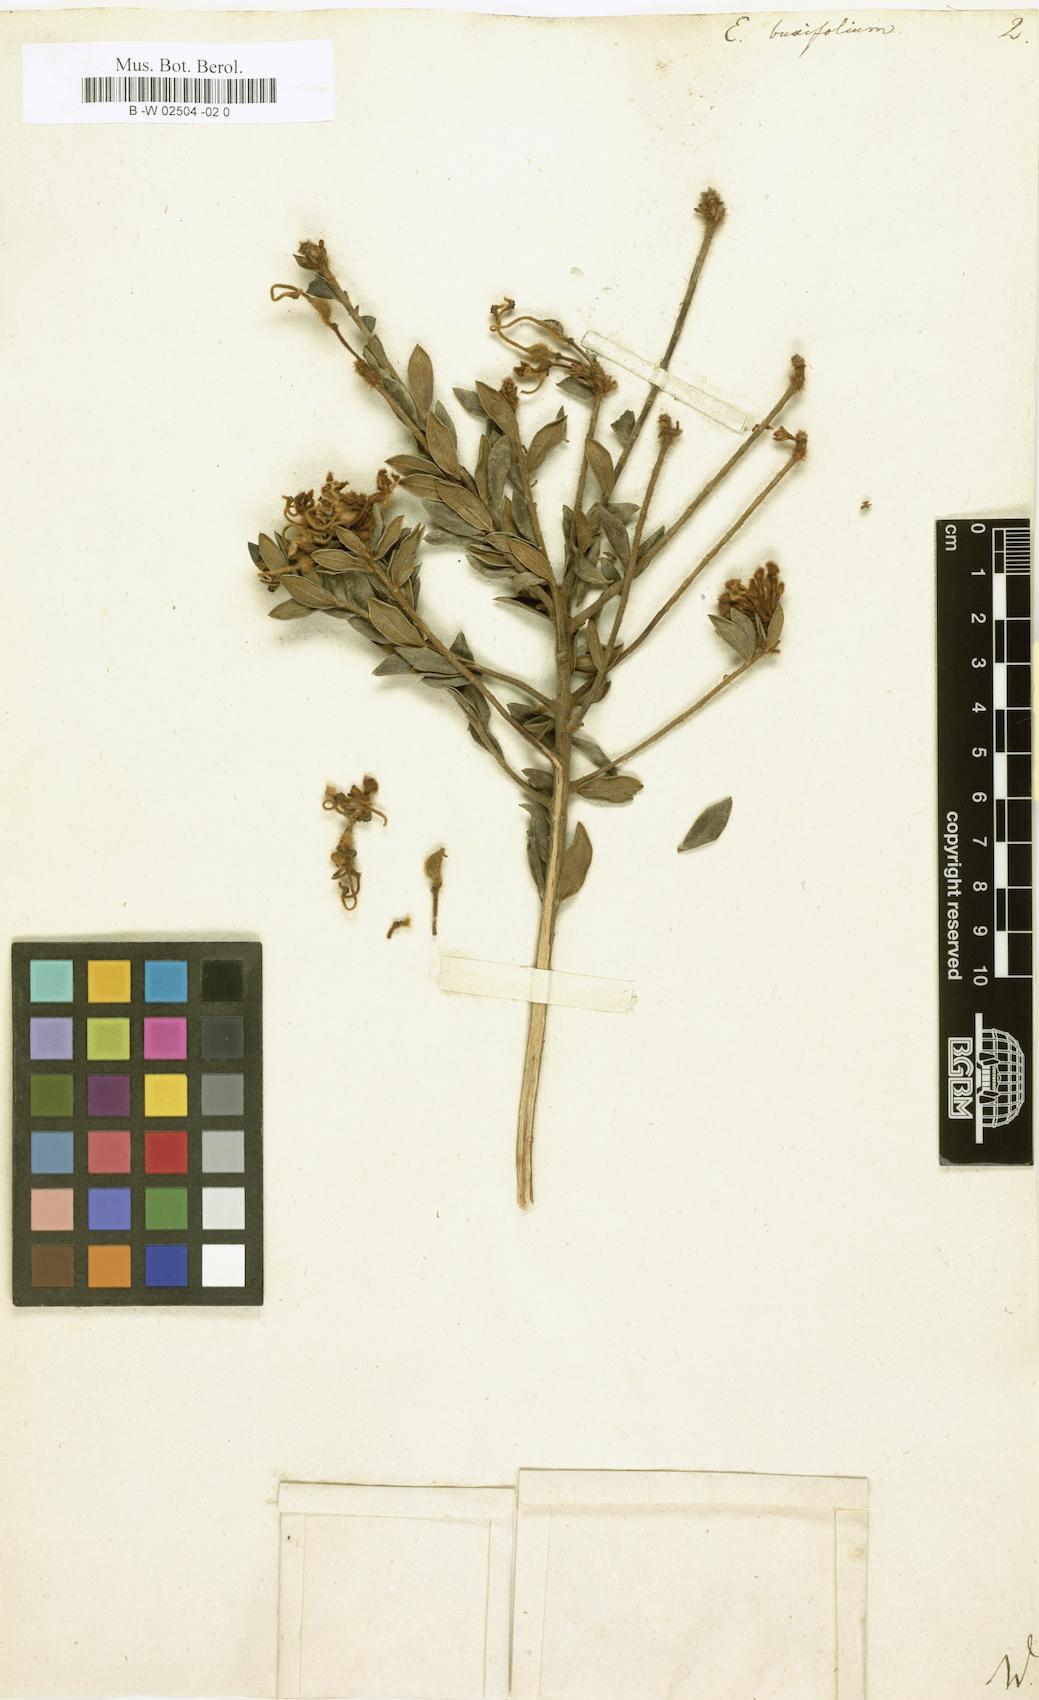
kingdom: Plantae
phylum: Tracheophyta
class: Magnoliopsida
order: Proteales
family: Proteaceae
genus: Grevillea
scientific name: Grevillea buxifolia
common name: Grey spiderflower
